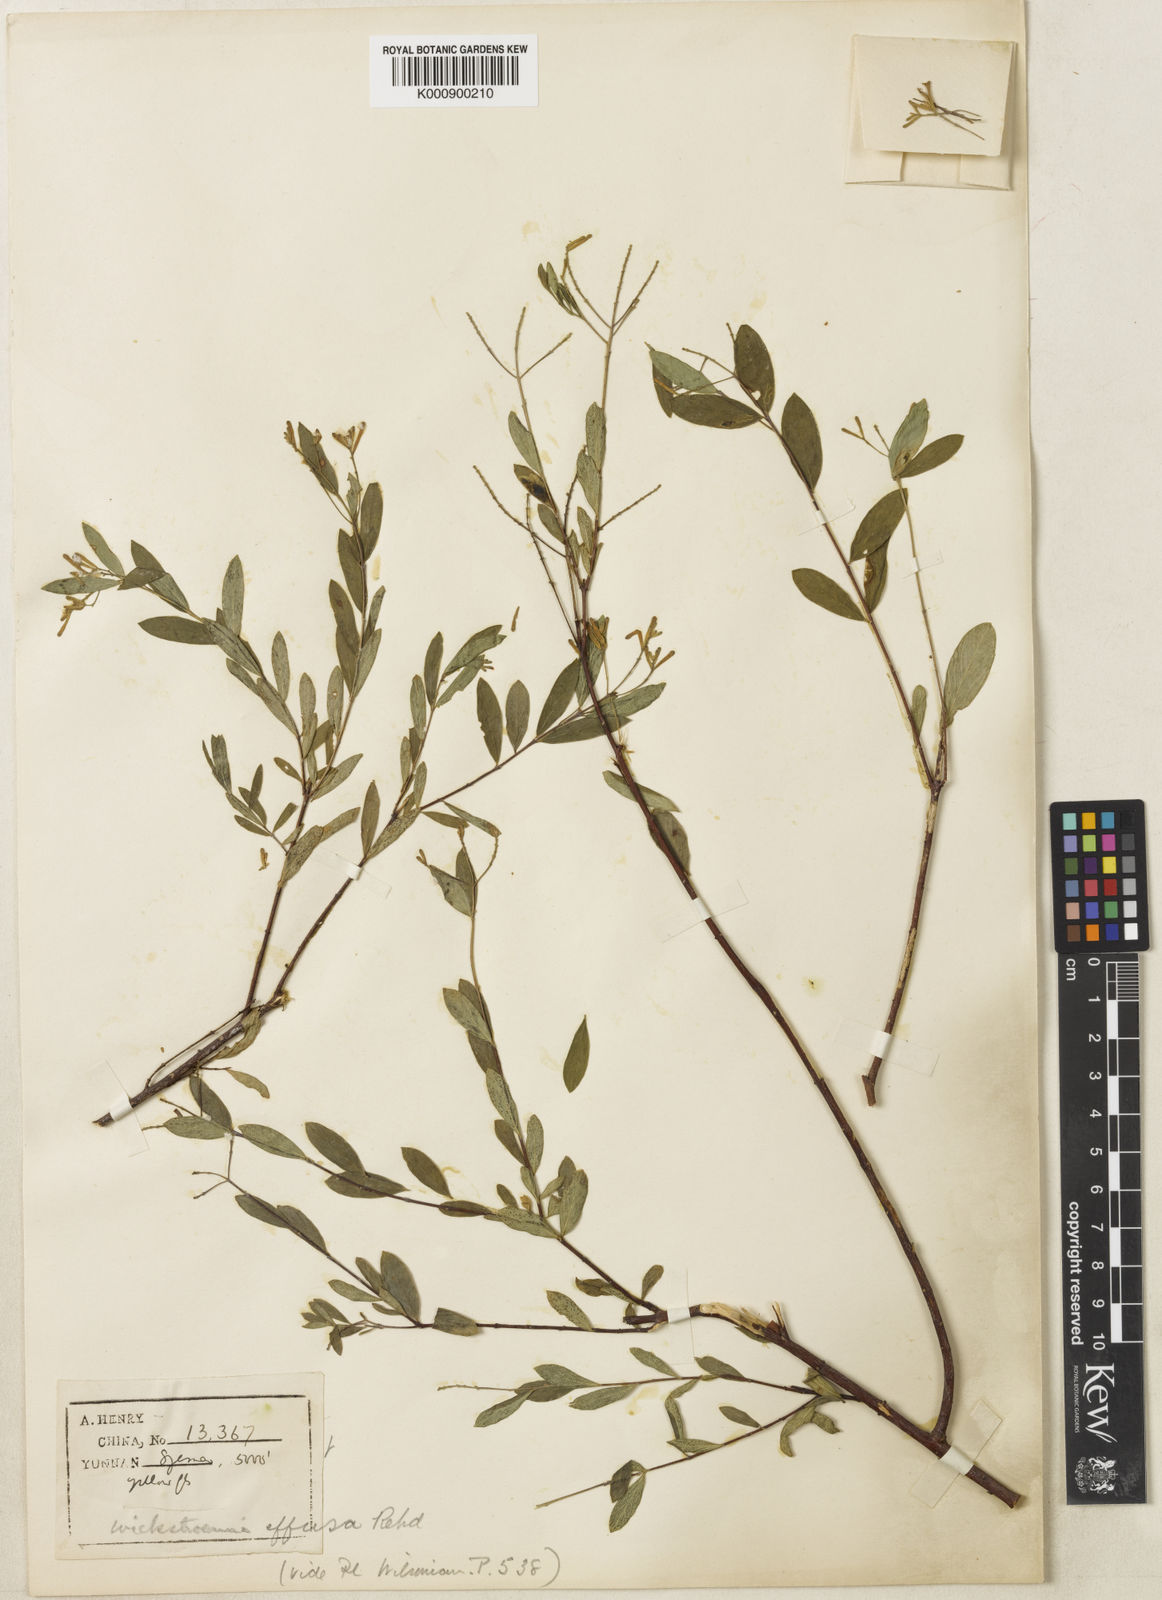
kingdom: Plantae
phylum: Tracheophyta
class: Magnoliopsida
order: Malvales
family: Thymelaeaceae
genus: Wikstroemia
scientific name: Wikstroemia dolichantha
